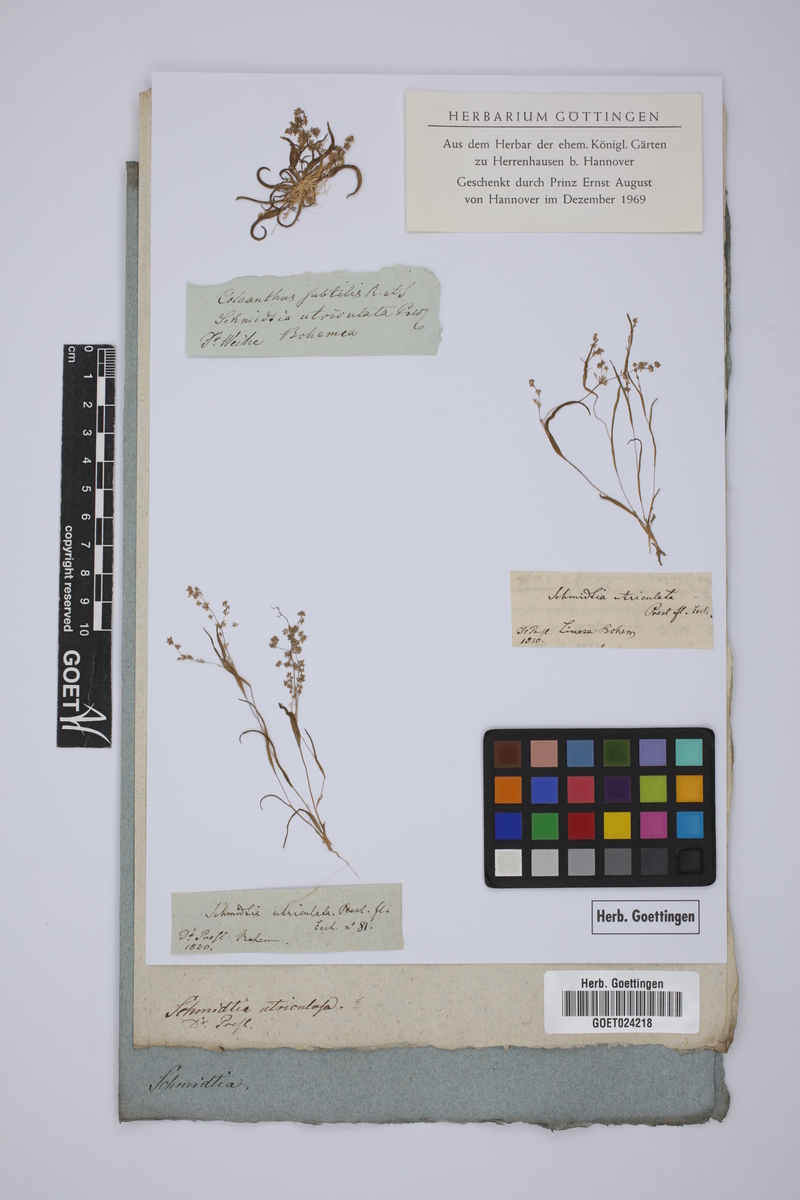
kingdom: Plantae
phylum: Tracheophyta
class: Liliopsida
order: Poales
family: Poaceae
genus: Coleanthus
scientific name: Coleanthus subtilis
